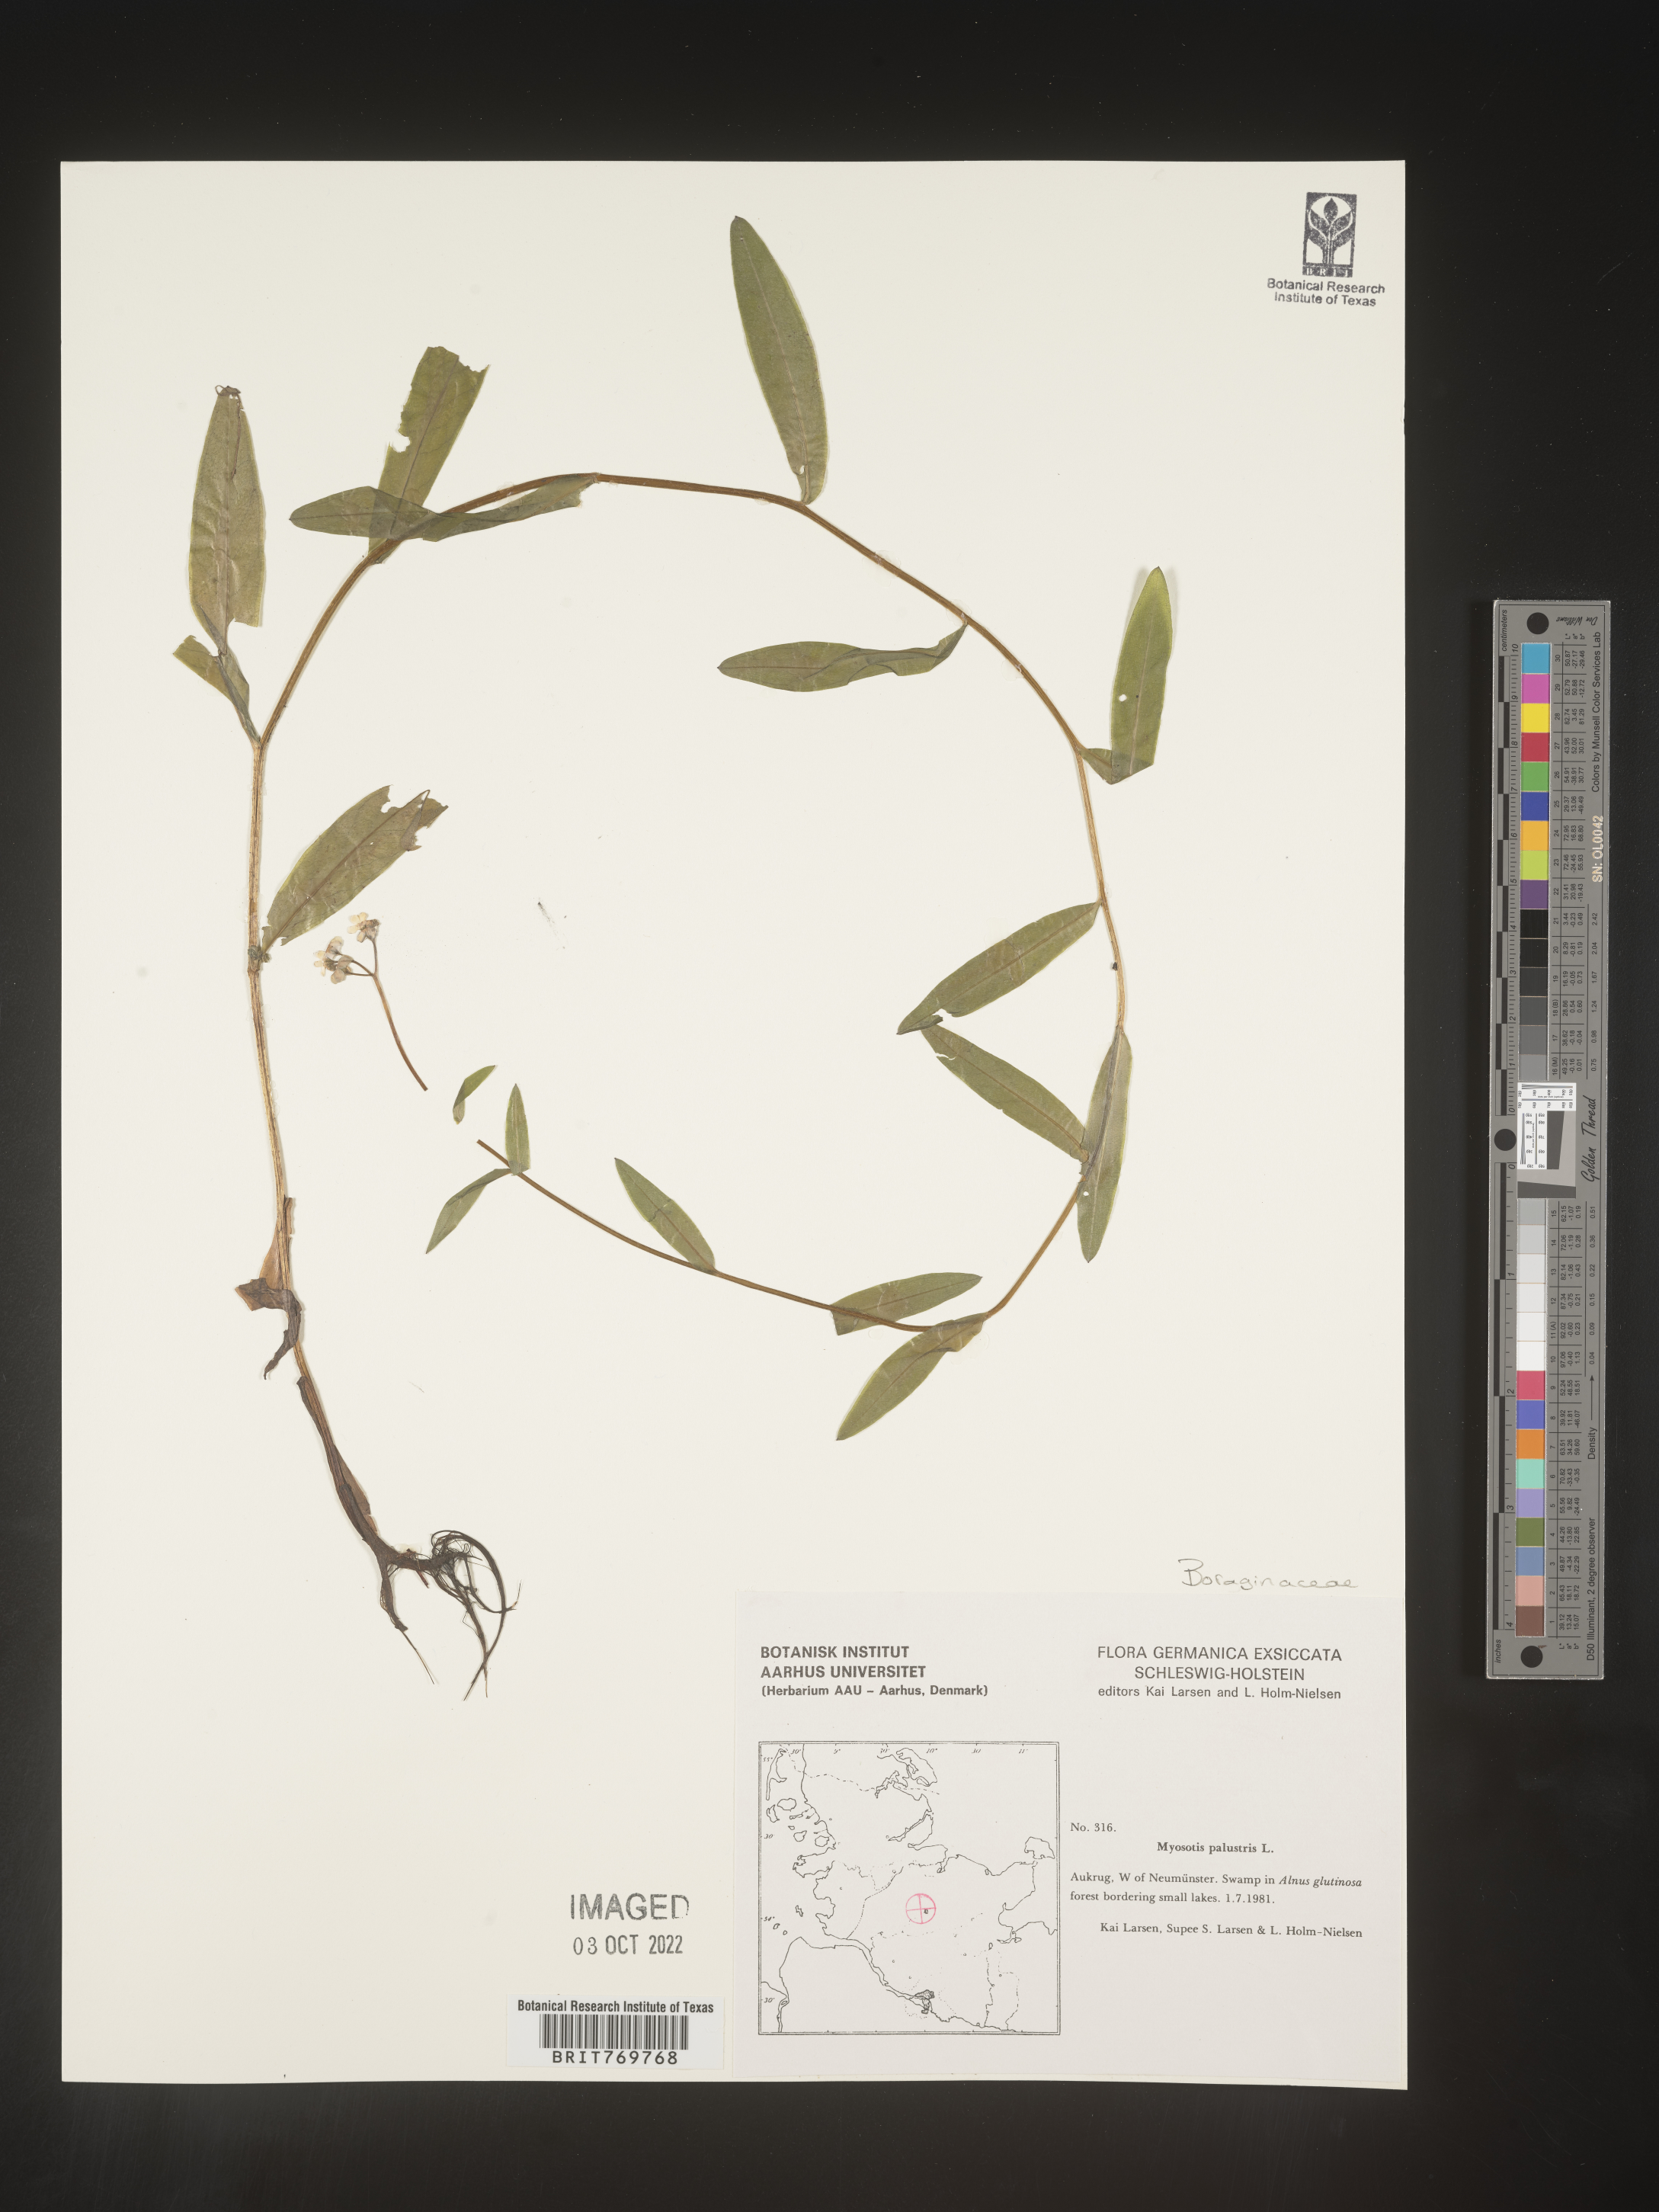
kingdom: Plantae
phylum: Tracheophyta
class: Magnoliopsida
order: Boraginales
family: Boraginaceae
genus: Myosotis
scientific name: Myosotis
